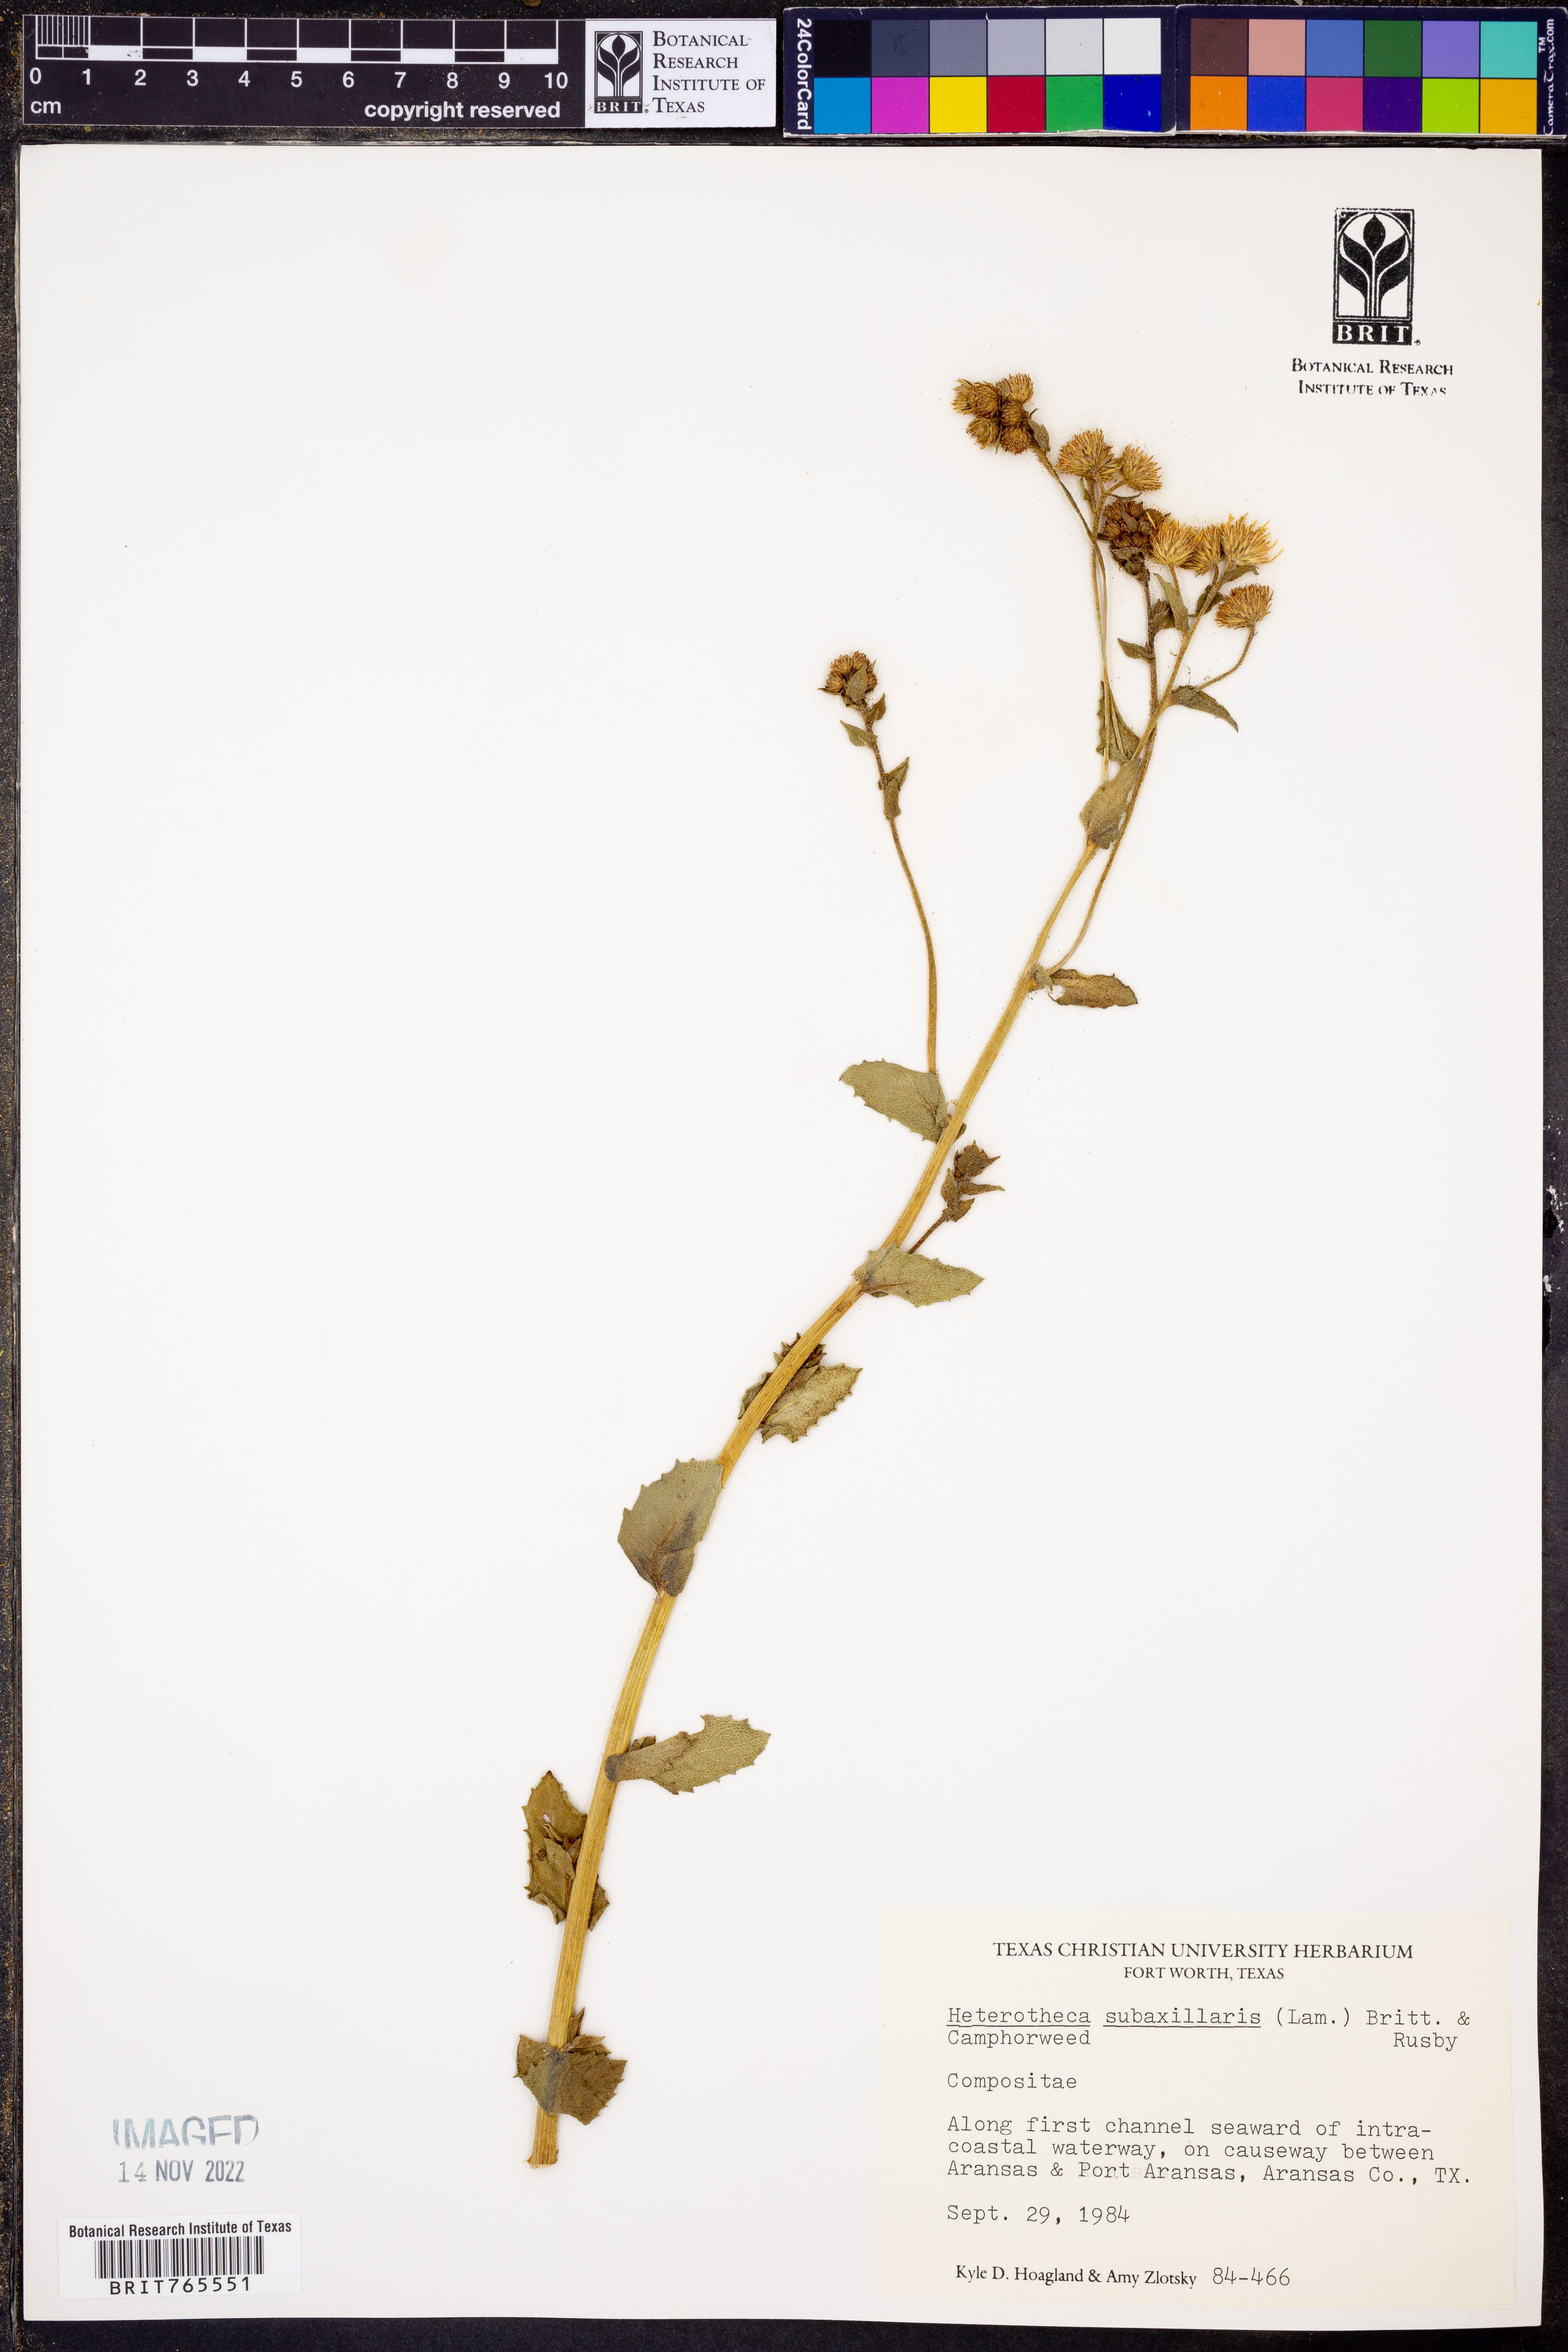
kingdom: Plantae
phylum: Tracheophyta
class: Magnoliopsida
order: Asterales
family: Asteraceae
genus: Heterotheca
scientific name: Heterotheca subaxillaris
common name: Camphorweed
